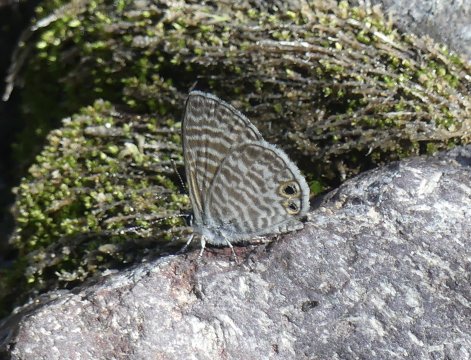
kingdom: Animalia
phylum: Arthropoda
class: Insecta
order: Lepidoptera
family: Lycaenidae
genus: Leptotes
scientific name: Leptotes marina
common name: Marine Blue
